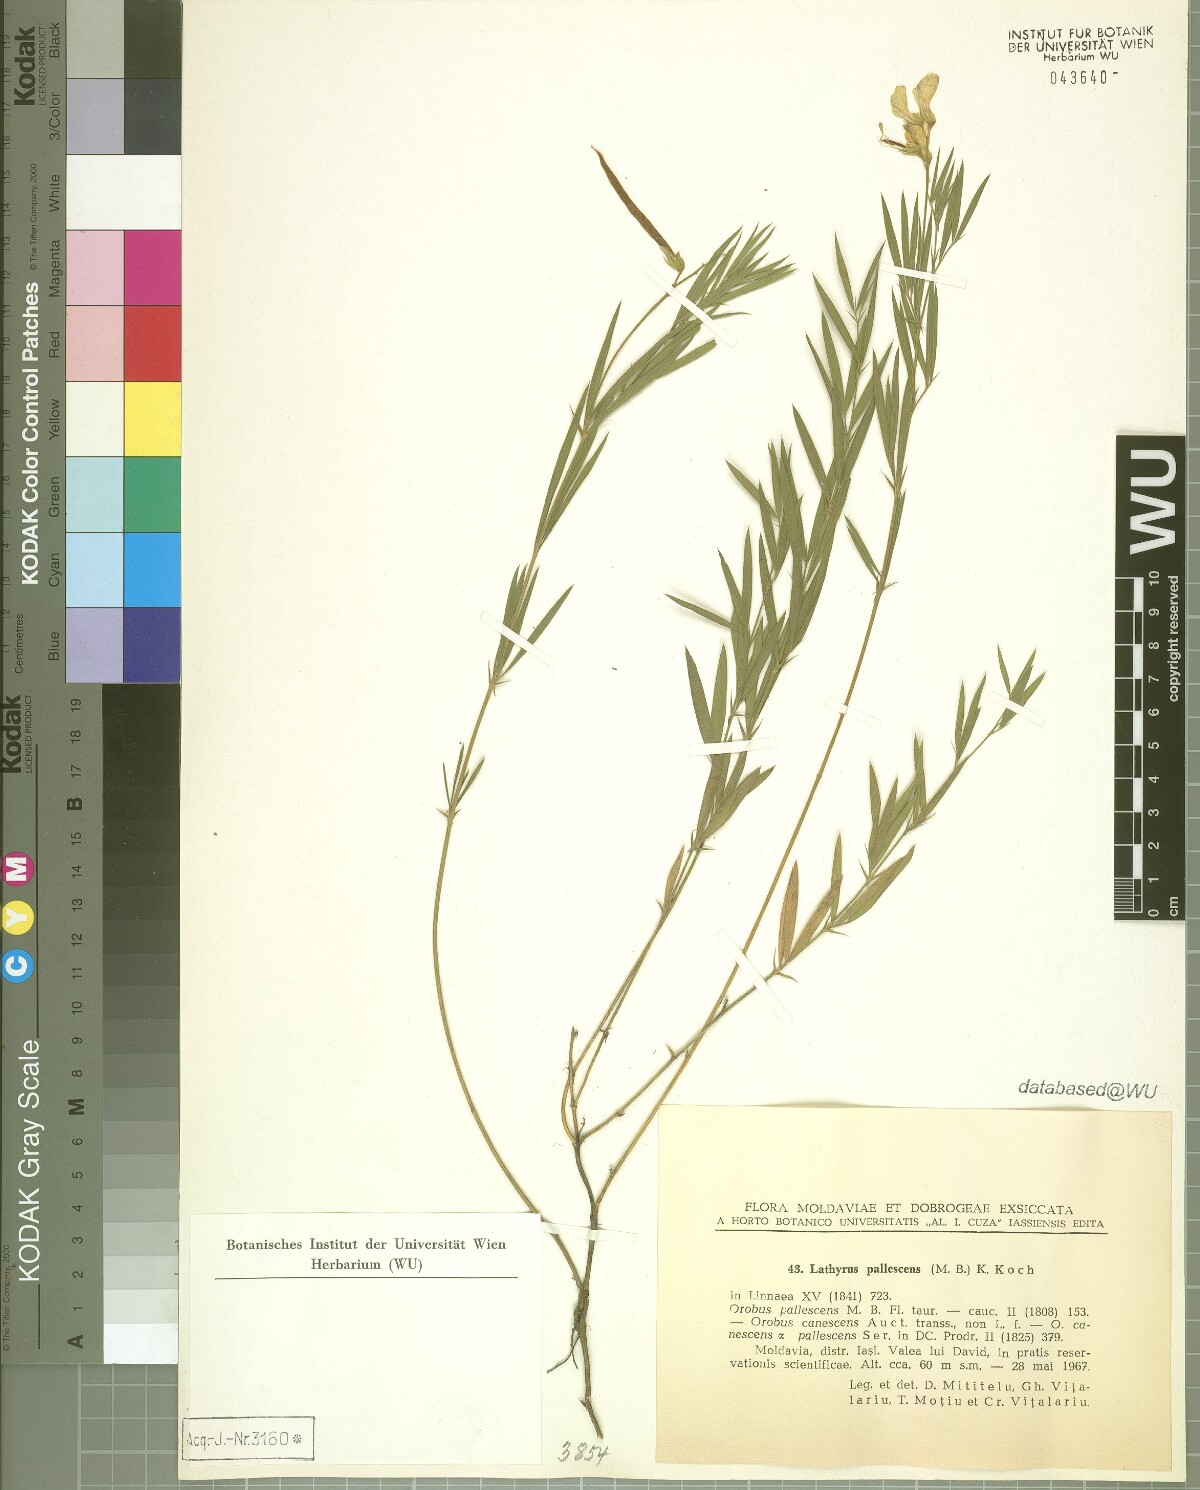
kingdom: Plantae
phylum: Tracheophyta
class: Magnoliopsida
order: Fabales
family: Fabaceae
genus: Lathyrus
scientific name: Lathyrus pallescens
